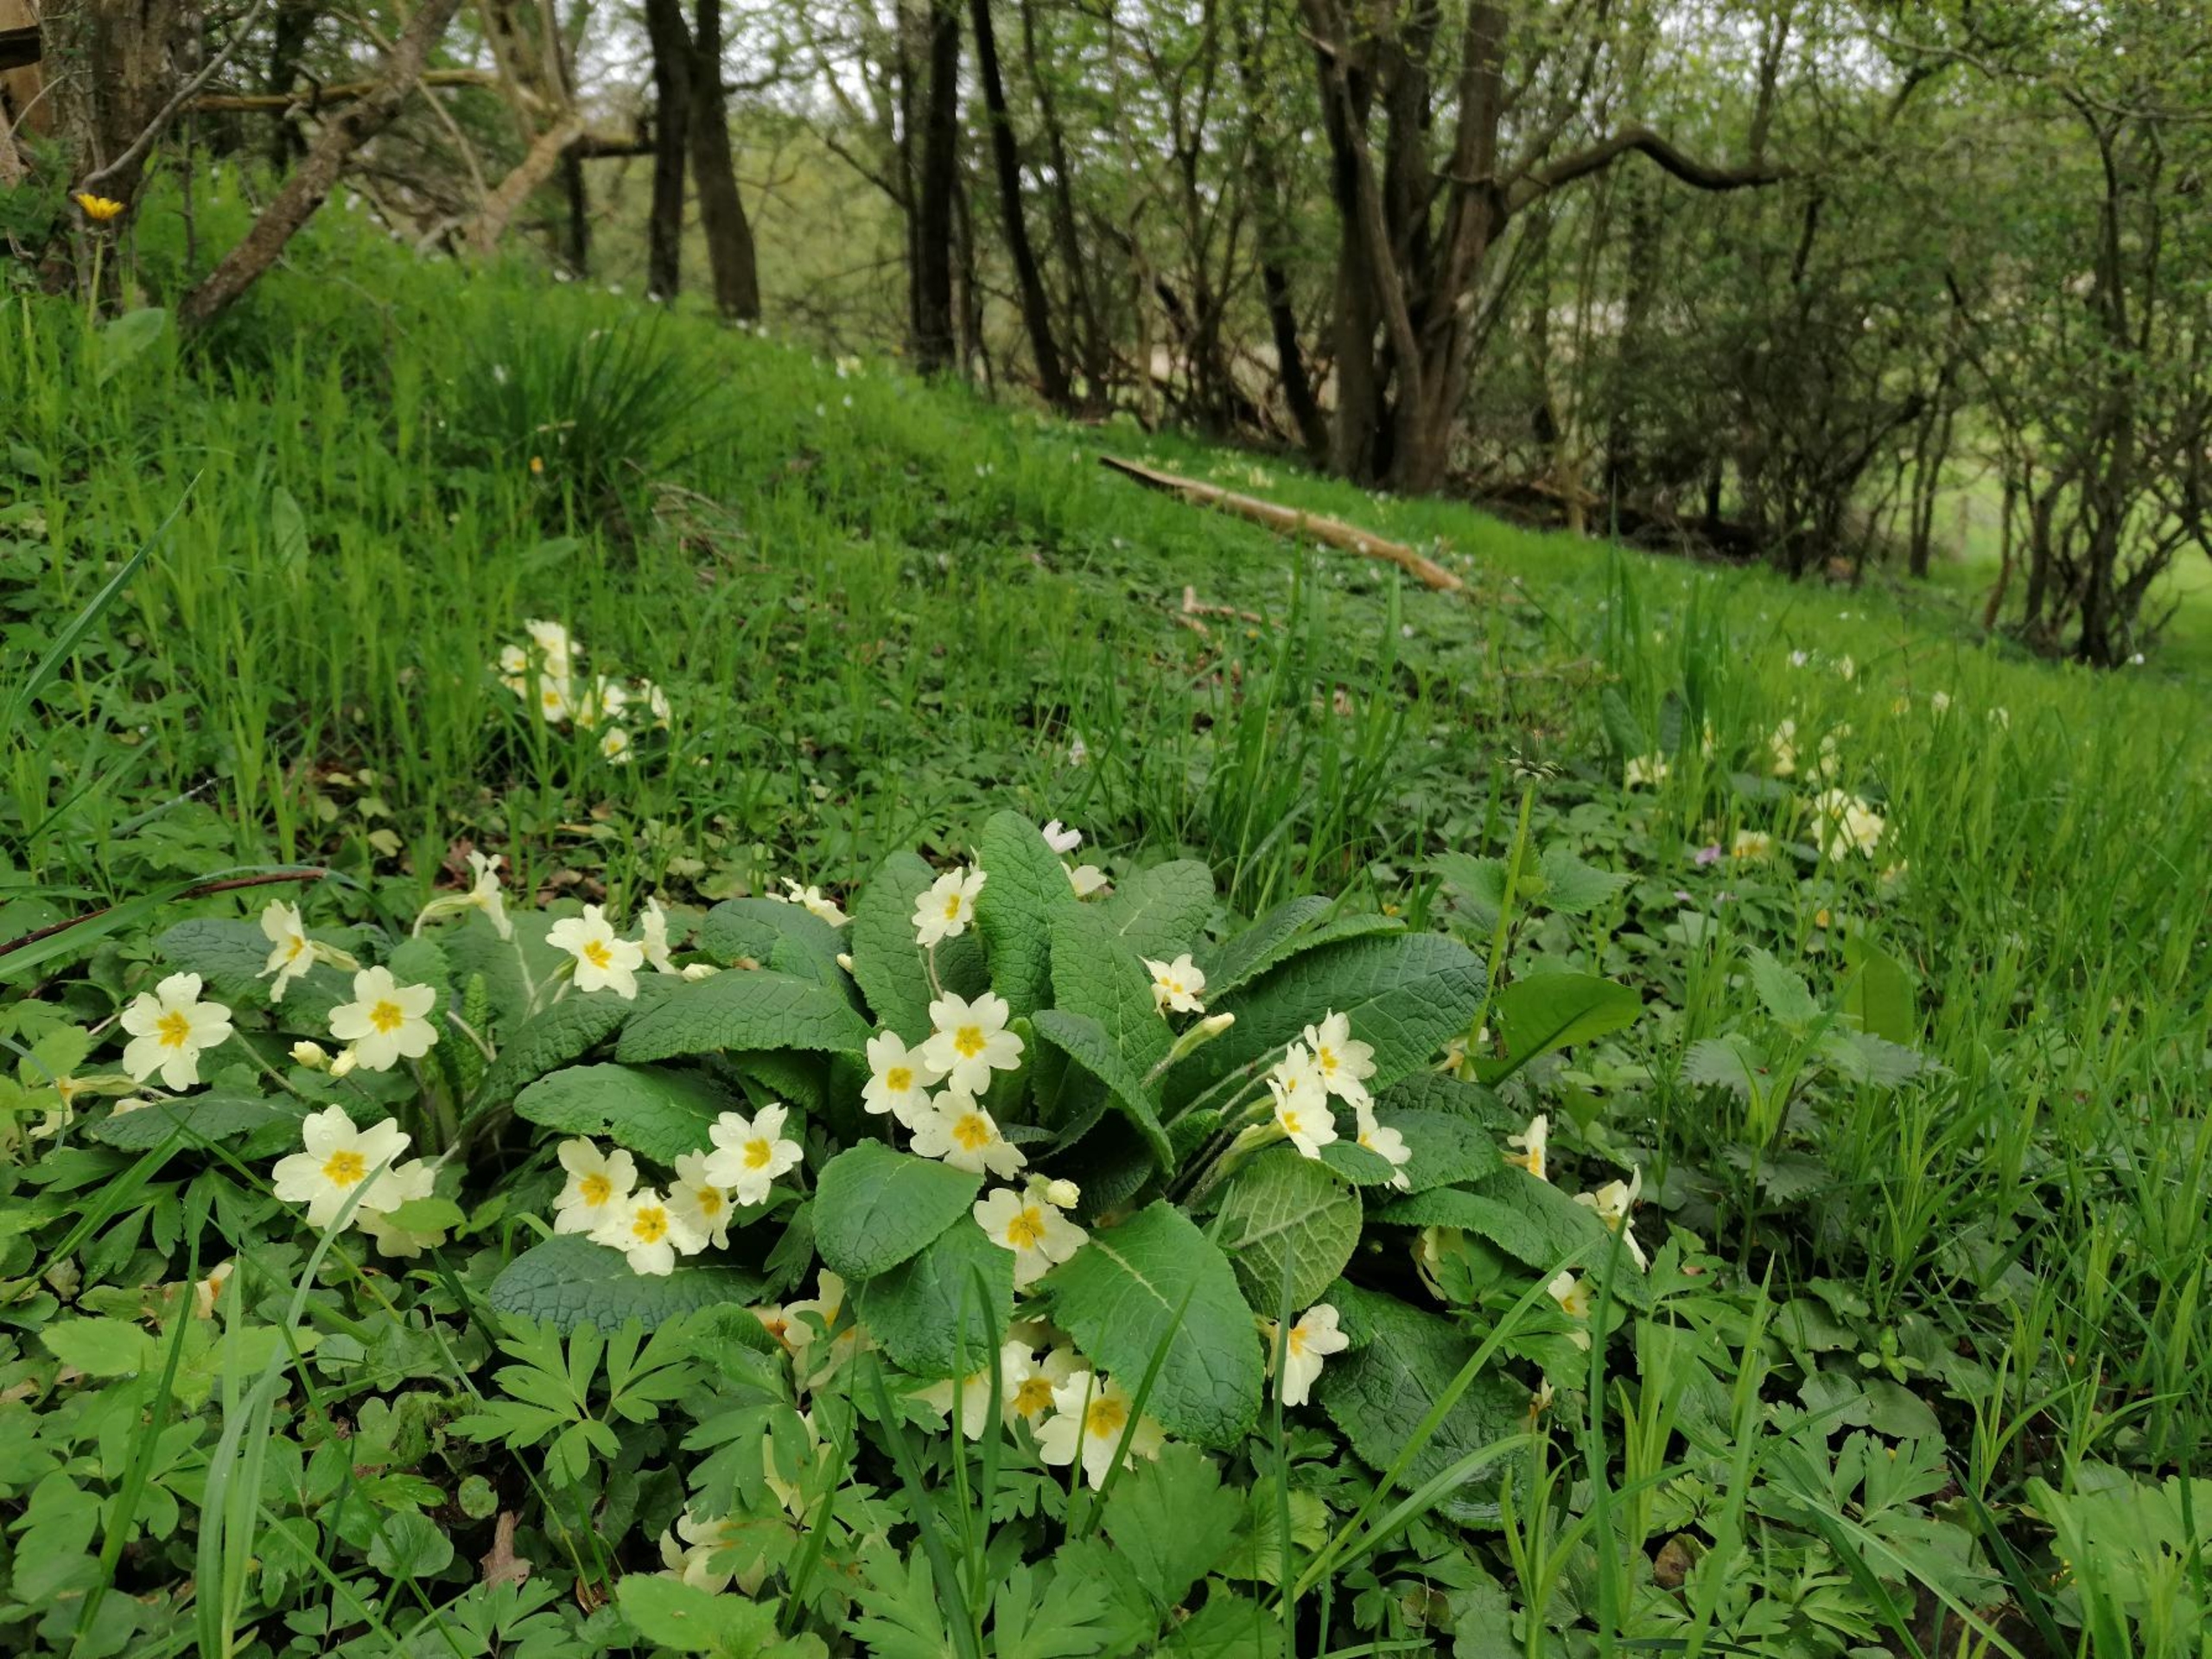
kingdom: Plantae
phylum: Tracheophyta
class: Magnoliopsida
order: Ericales
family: Primulaceae
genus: Primula
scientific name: Primula vulgaris
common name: Storblomstret kodriver
